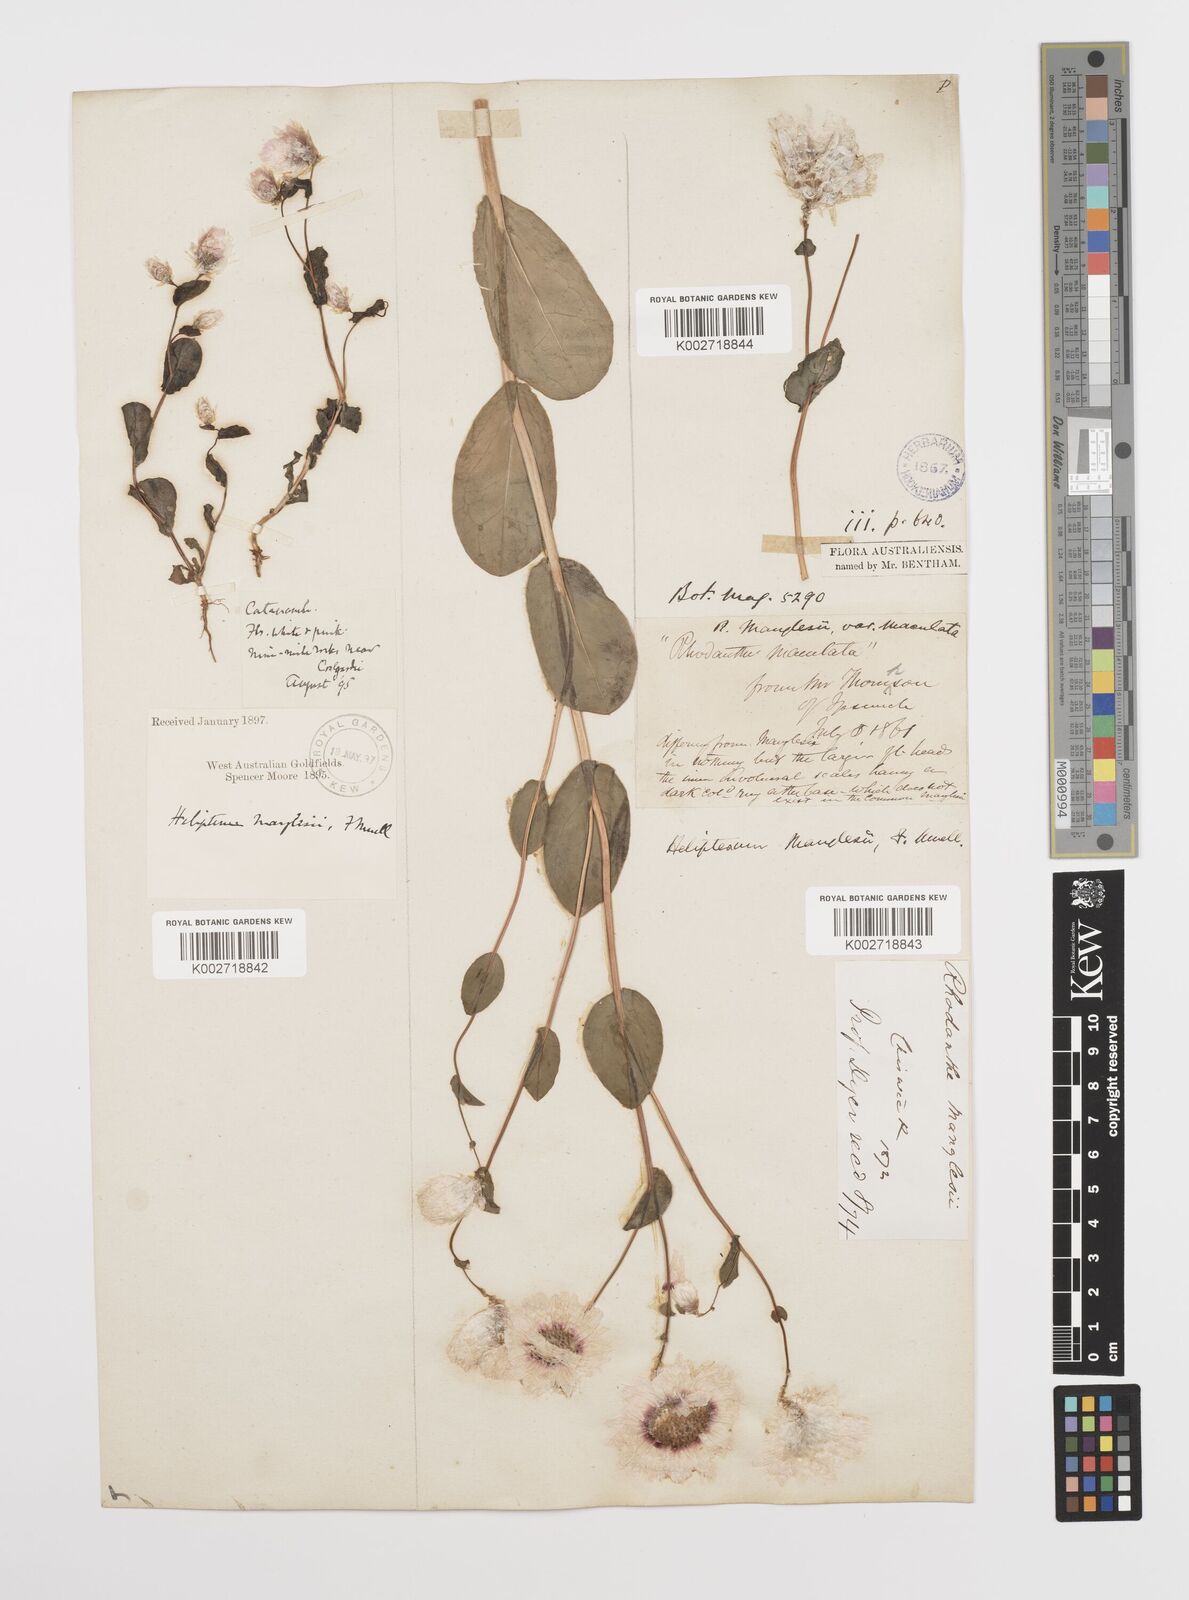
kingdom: Plantae
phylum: Tracheophyta
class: Magnoliopsida
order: Asterales
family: Asteraceae
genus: Rhodanthe
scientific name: Rhodanthe manglesii
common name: Pink sunray
